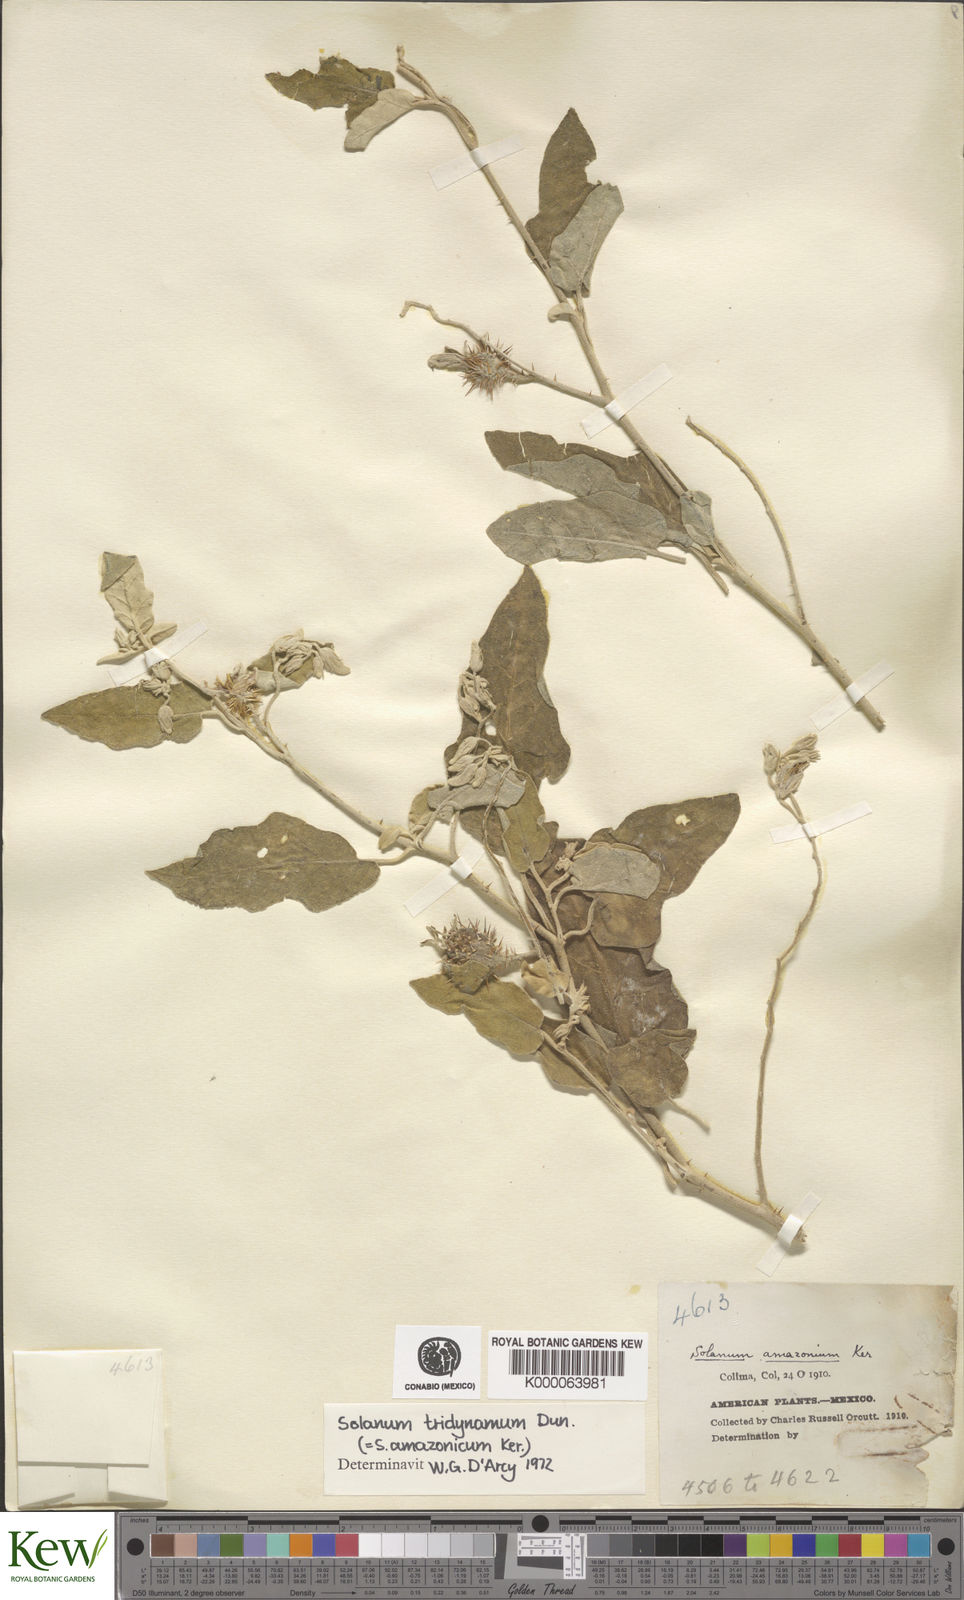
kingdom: Plantae
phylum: Tracheophyta
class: Magnoliopsida
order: Solanales
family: Solanaceae
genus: Solanum
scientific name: Solanum houstonii
